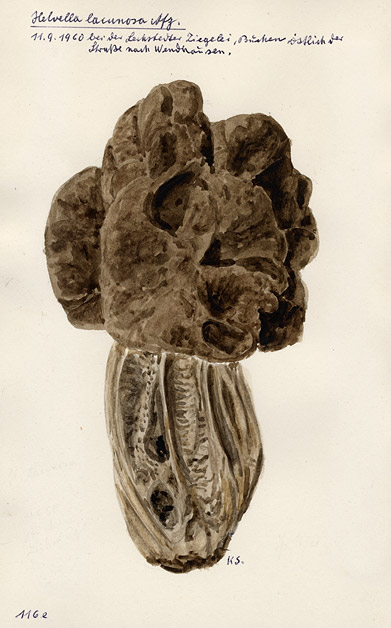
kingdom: Fungi
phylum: Ascomycota
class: Pezizomycetes
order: Pezizales
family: Helvellaceae
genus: Helvella
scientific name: Helvella lacunosa
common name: Elfin saddle
